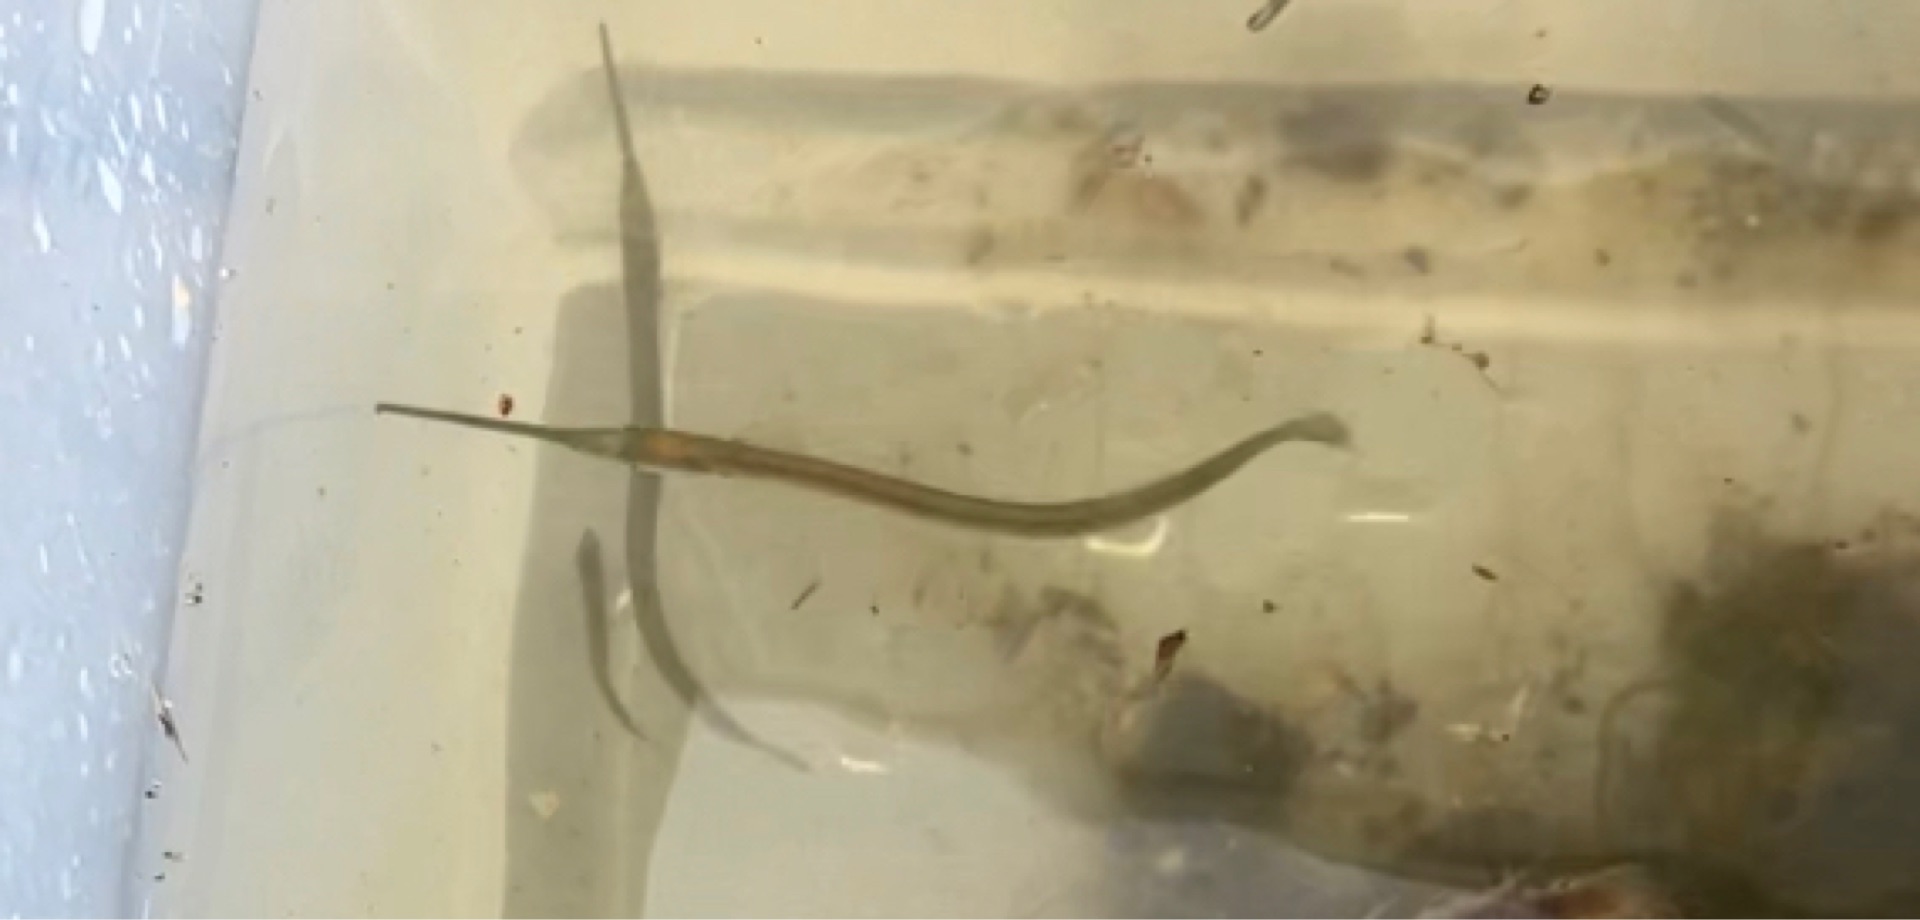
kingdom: Animalia
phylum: Chordata
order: Beloniformes
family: Belonidae
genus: Belone
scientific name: Belone belone
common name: Hornfisk
